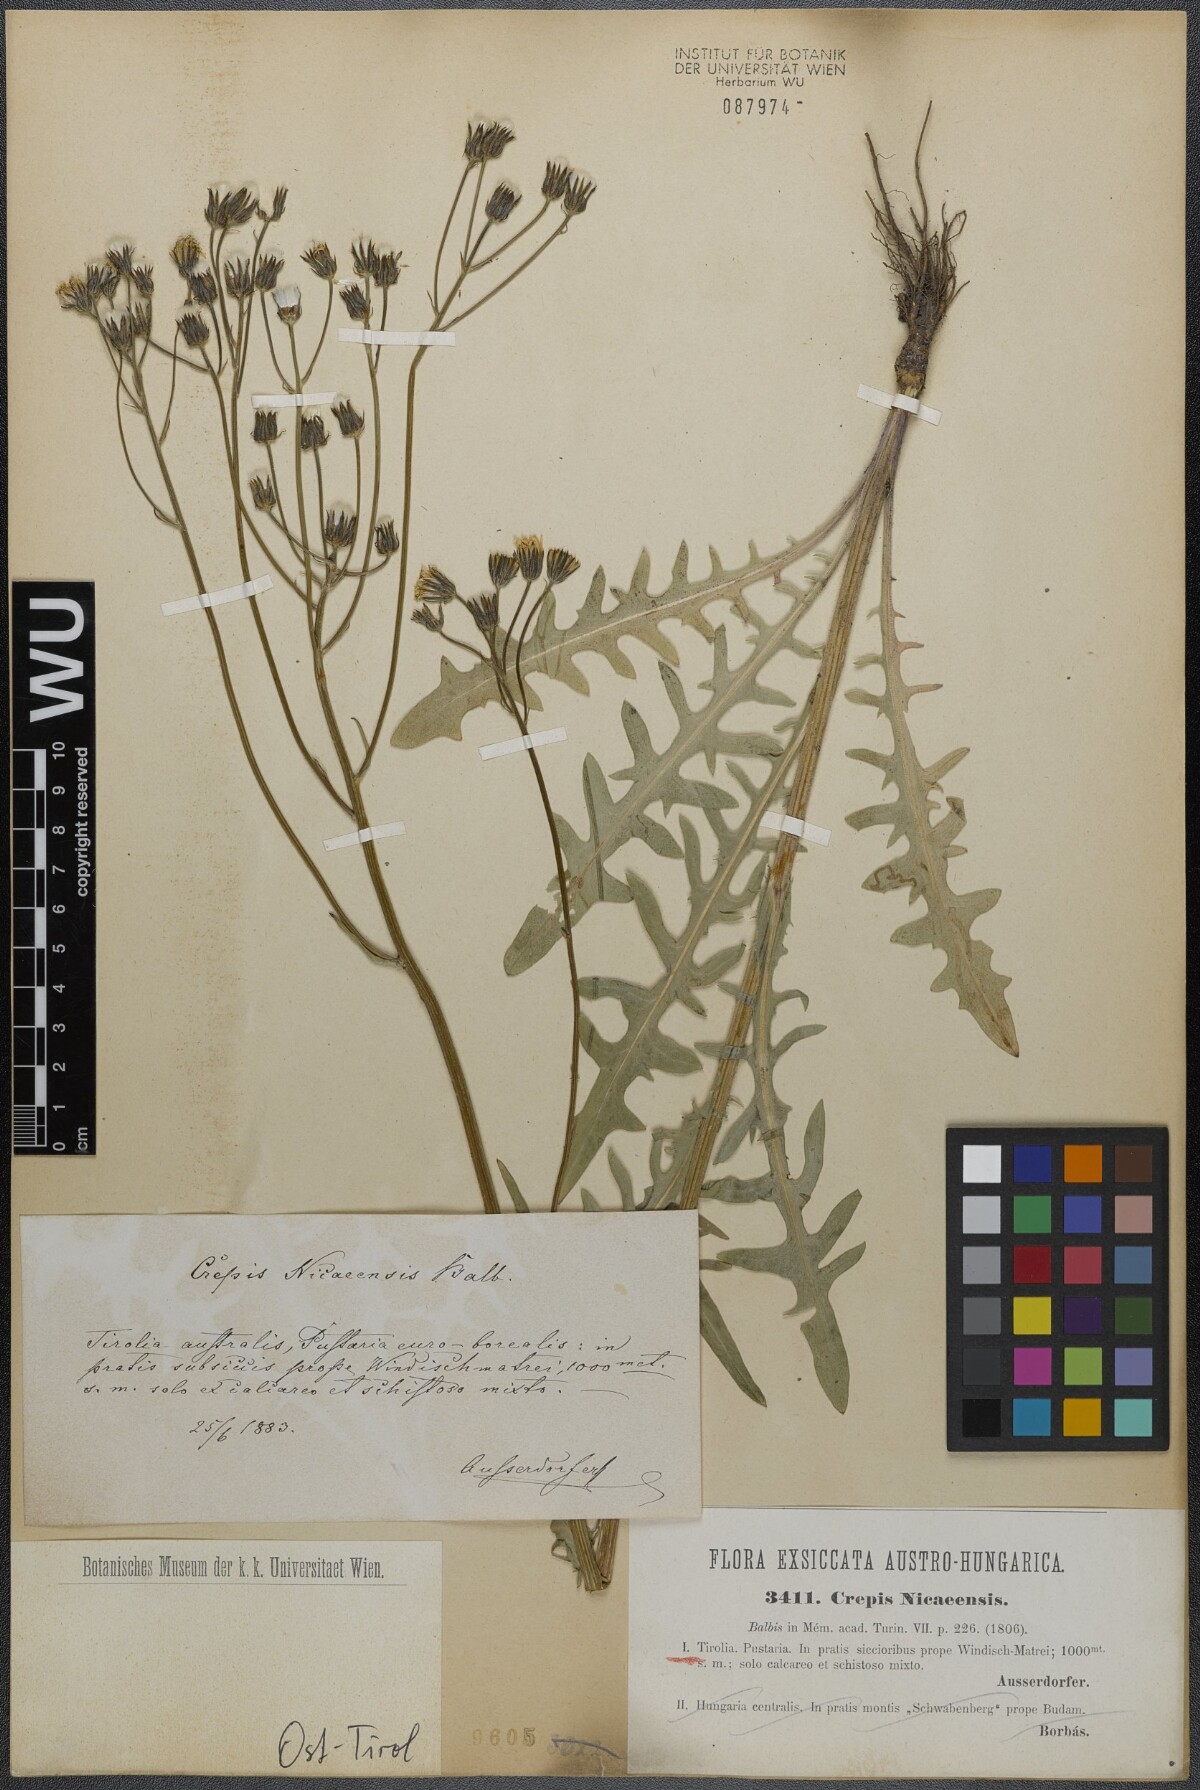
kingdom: Plantae
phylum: Tracheophyta
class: Magnoliopsida
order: Asterales
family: Asteraceae
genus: Crepis
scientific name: Crepis nicaeensis
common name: Turkish hawksbeard
